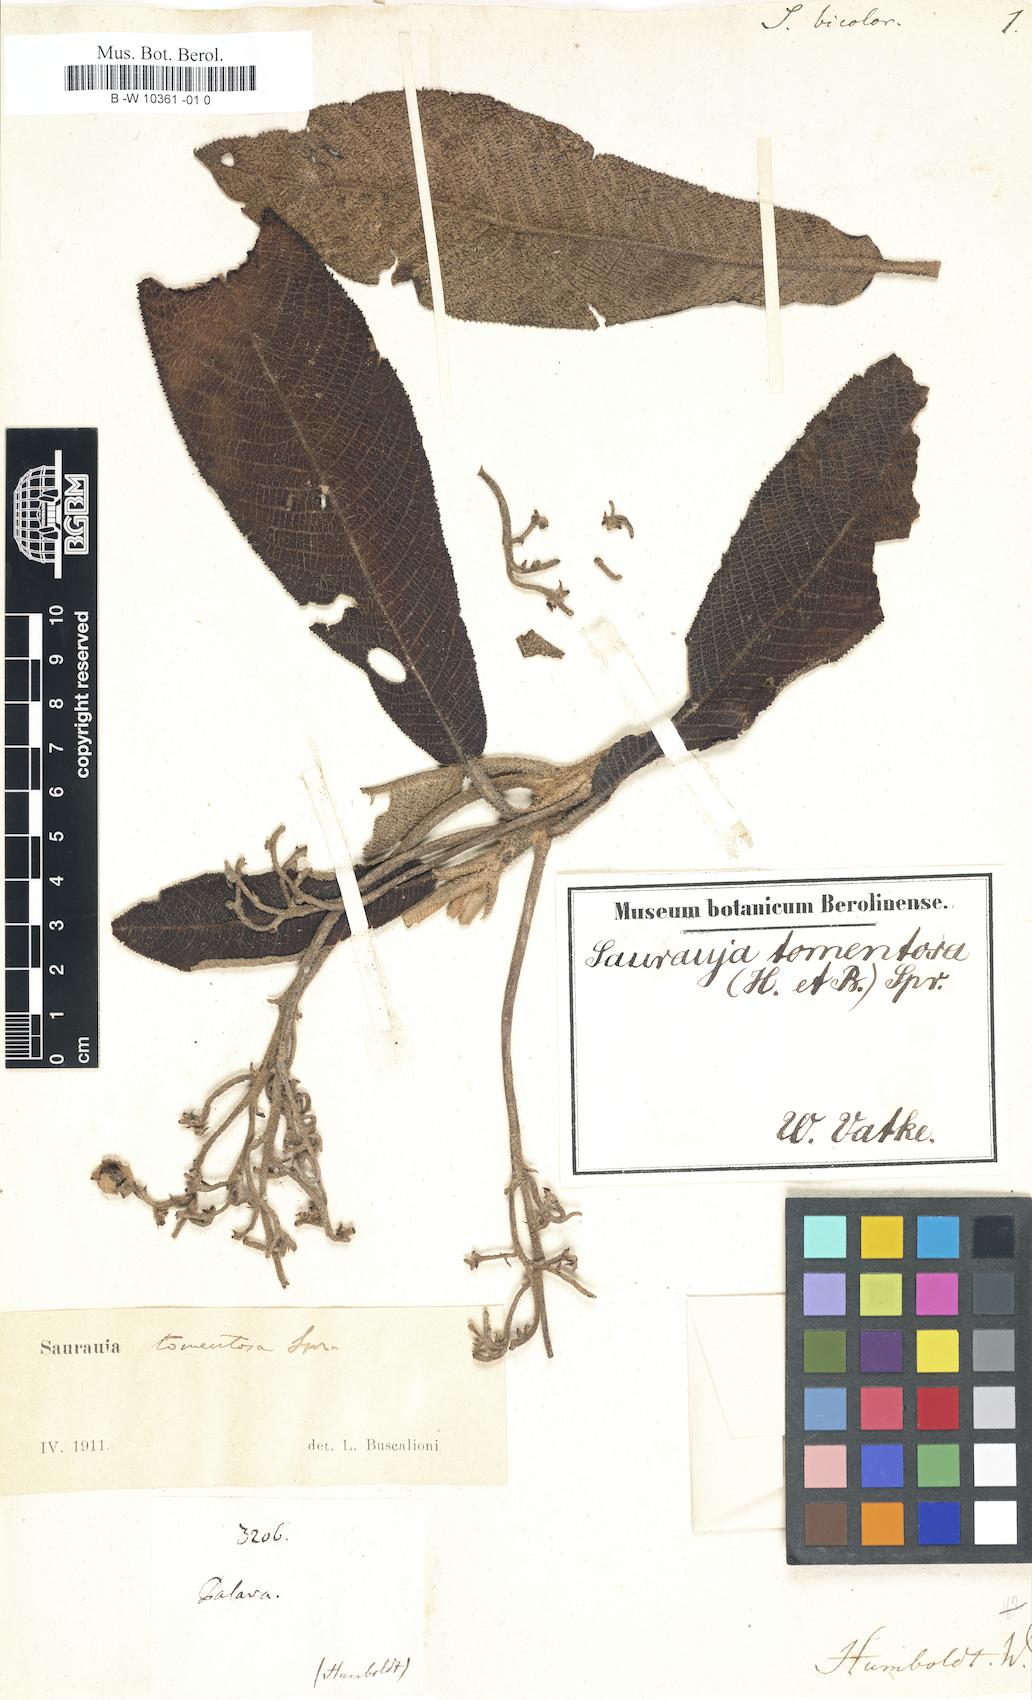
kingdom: Plantae
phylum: Tracheophyta
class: Magnoliopsida
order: Ericales
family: Actinidiaceae
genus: Saurauia
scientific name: Saurauia bicolor
